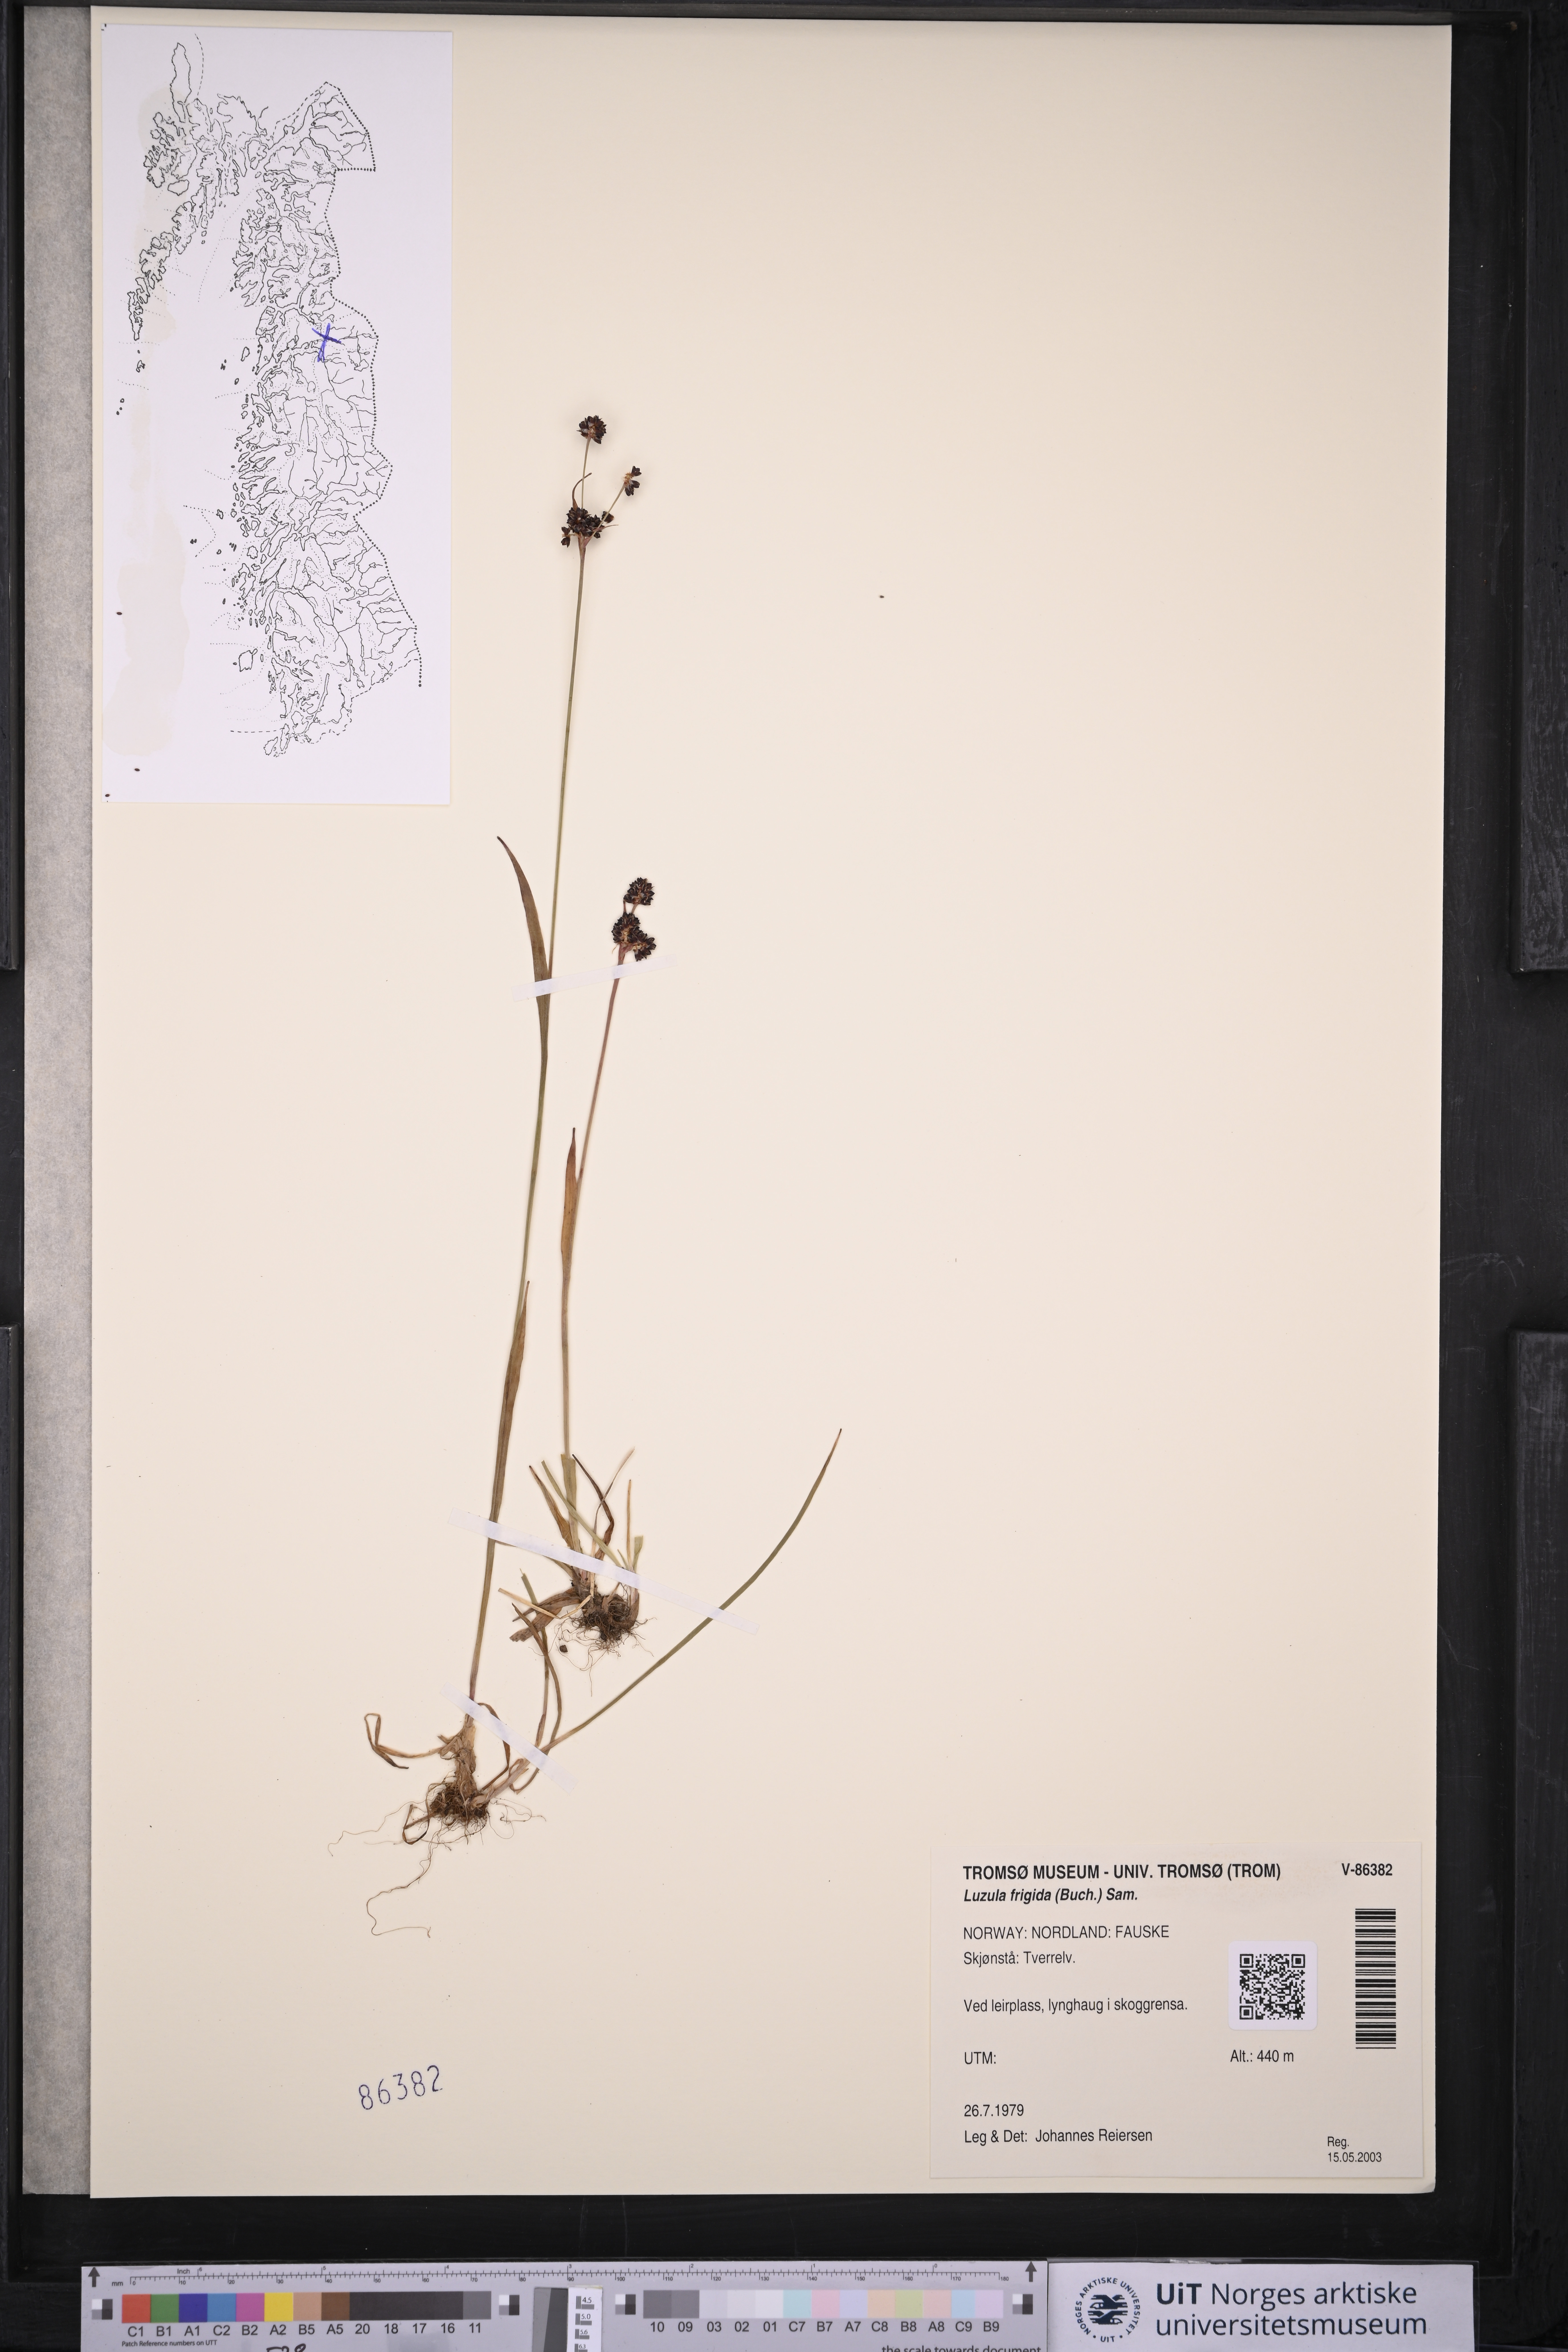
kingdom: Plantae
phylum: Tracheophyta
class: Liliopsida
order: Poales
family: Juncaceae
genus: Luzula
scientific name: Luzula multiflora
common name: Heath wood-rush
